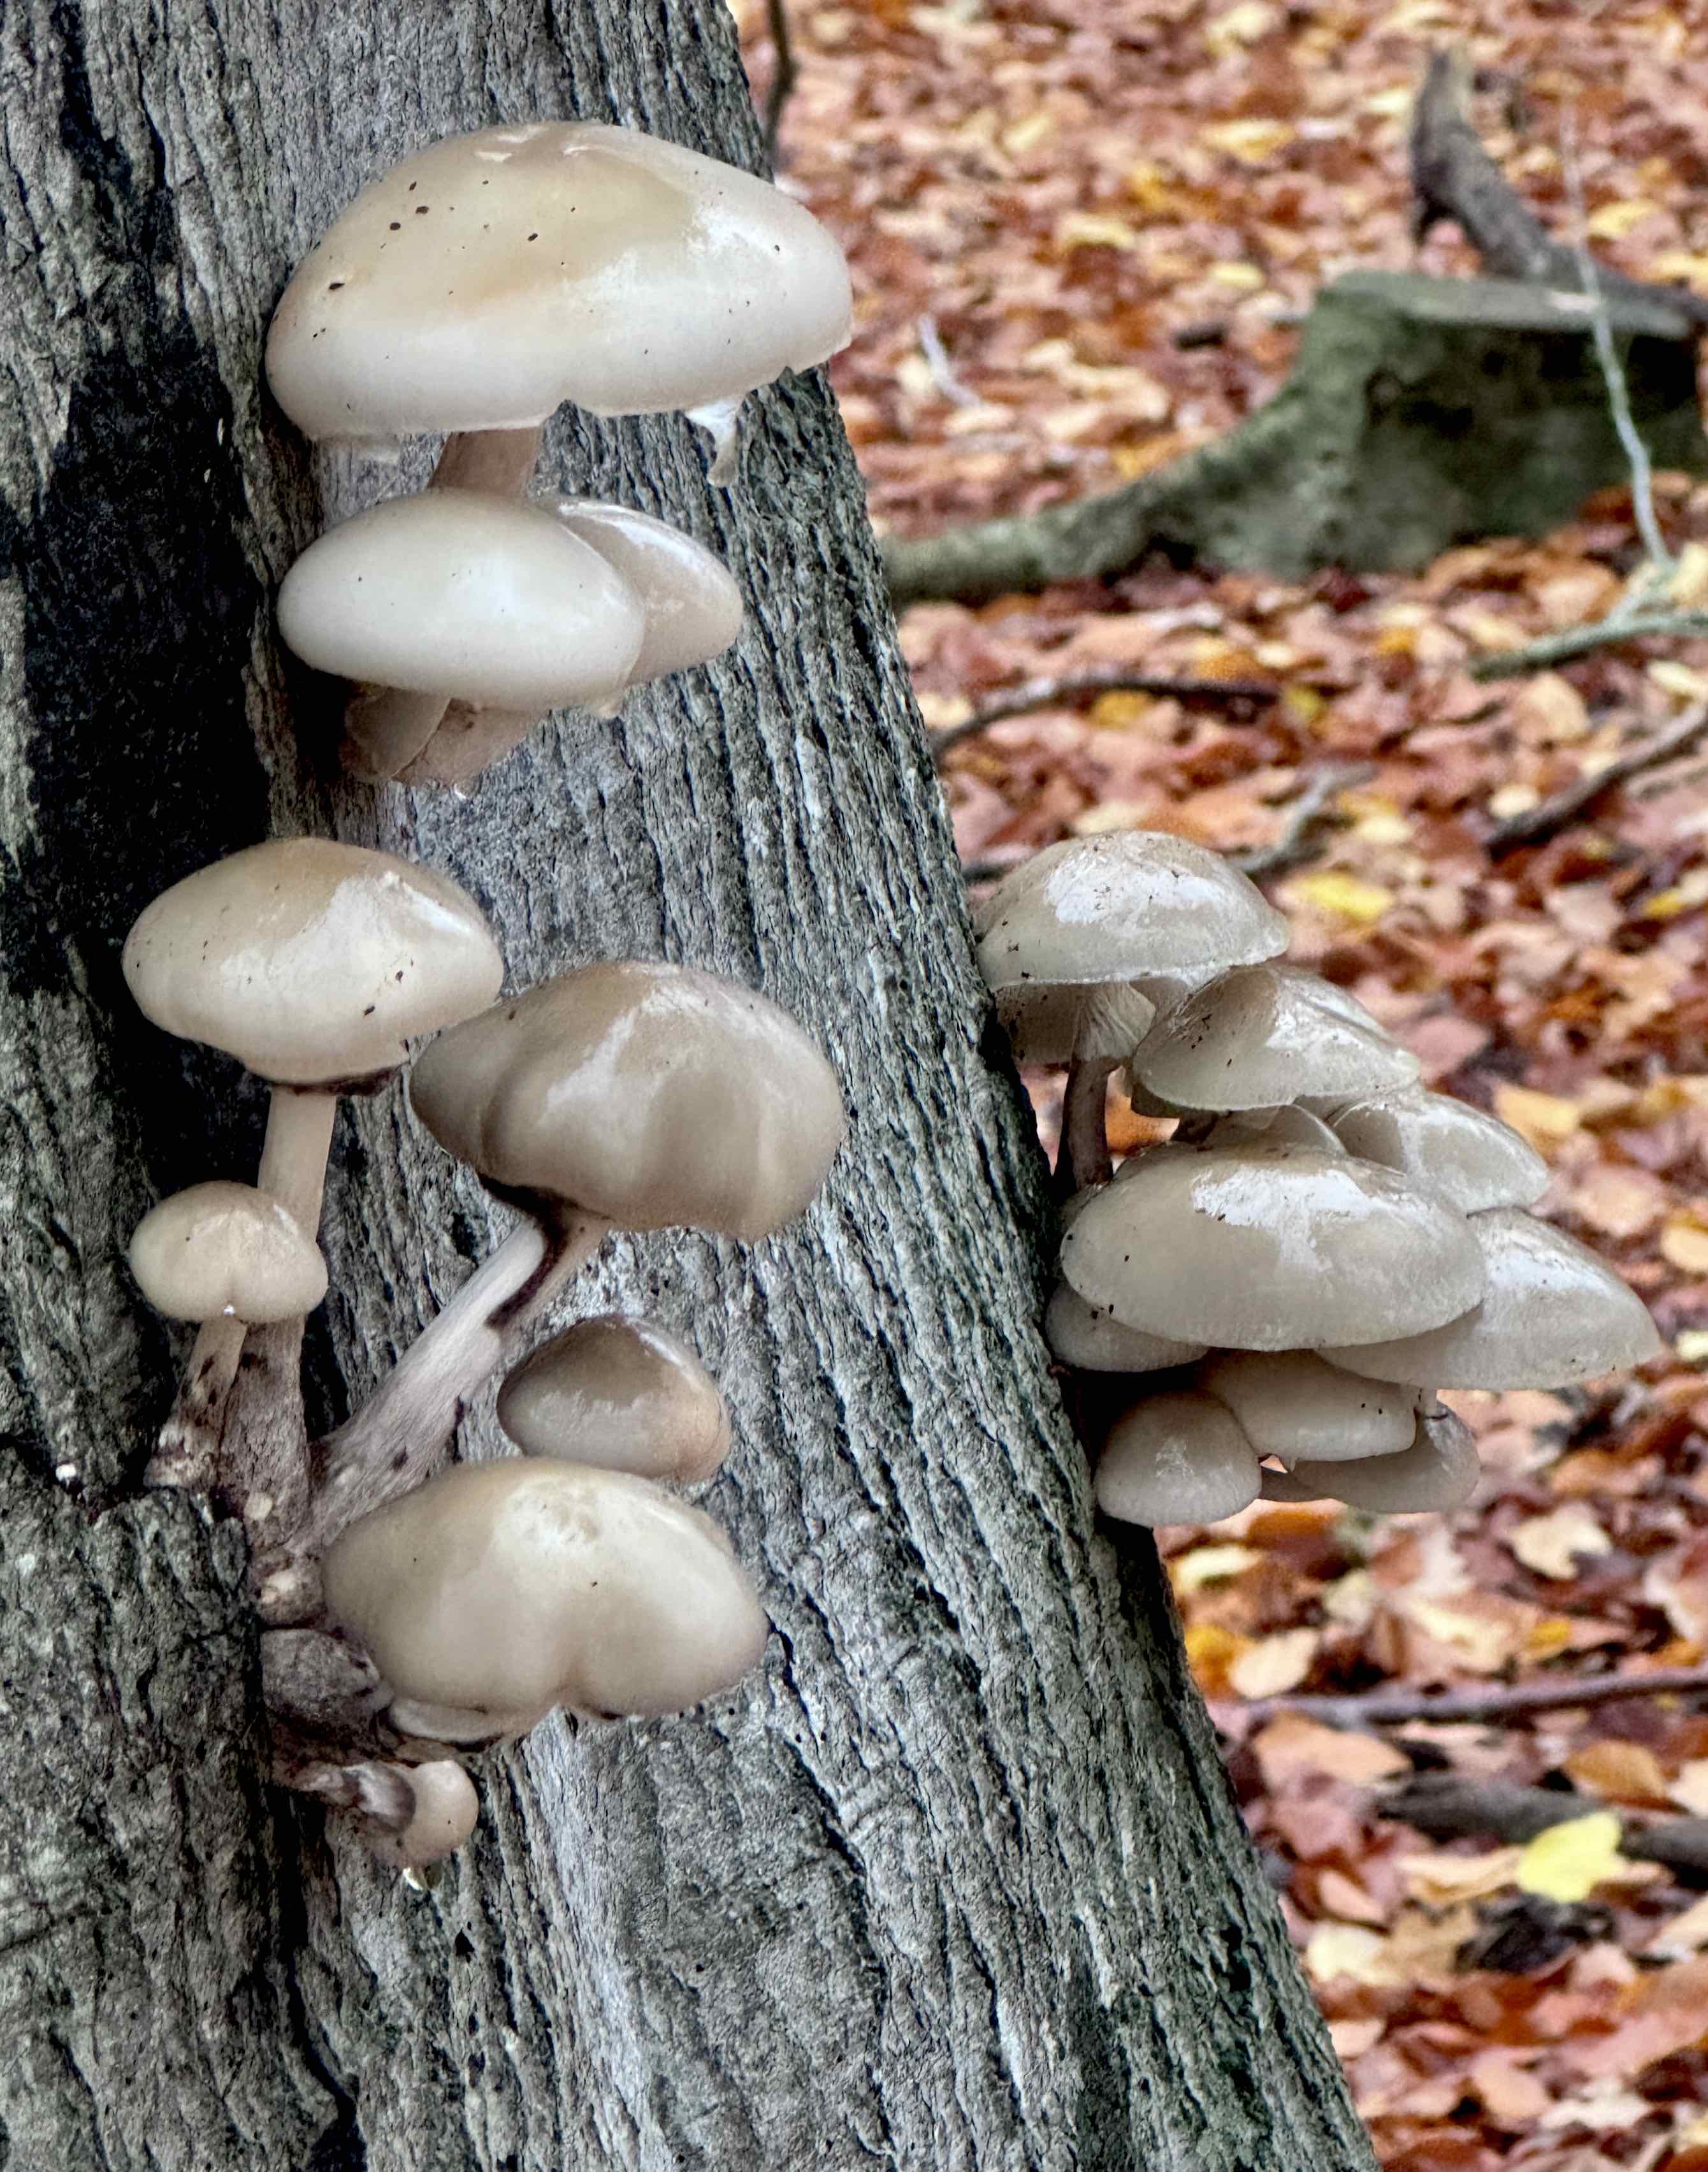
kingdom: Fungi
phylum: Basidiomycota
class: Agaricomycetes
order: Agaricales
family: Physalacriaceae
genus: Mucidula
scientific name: Mucidula mucida
